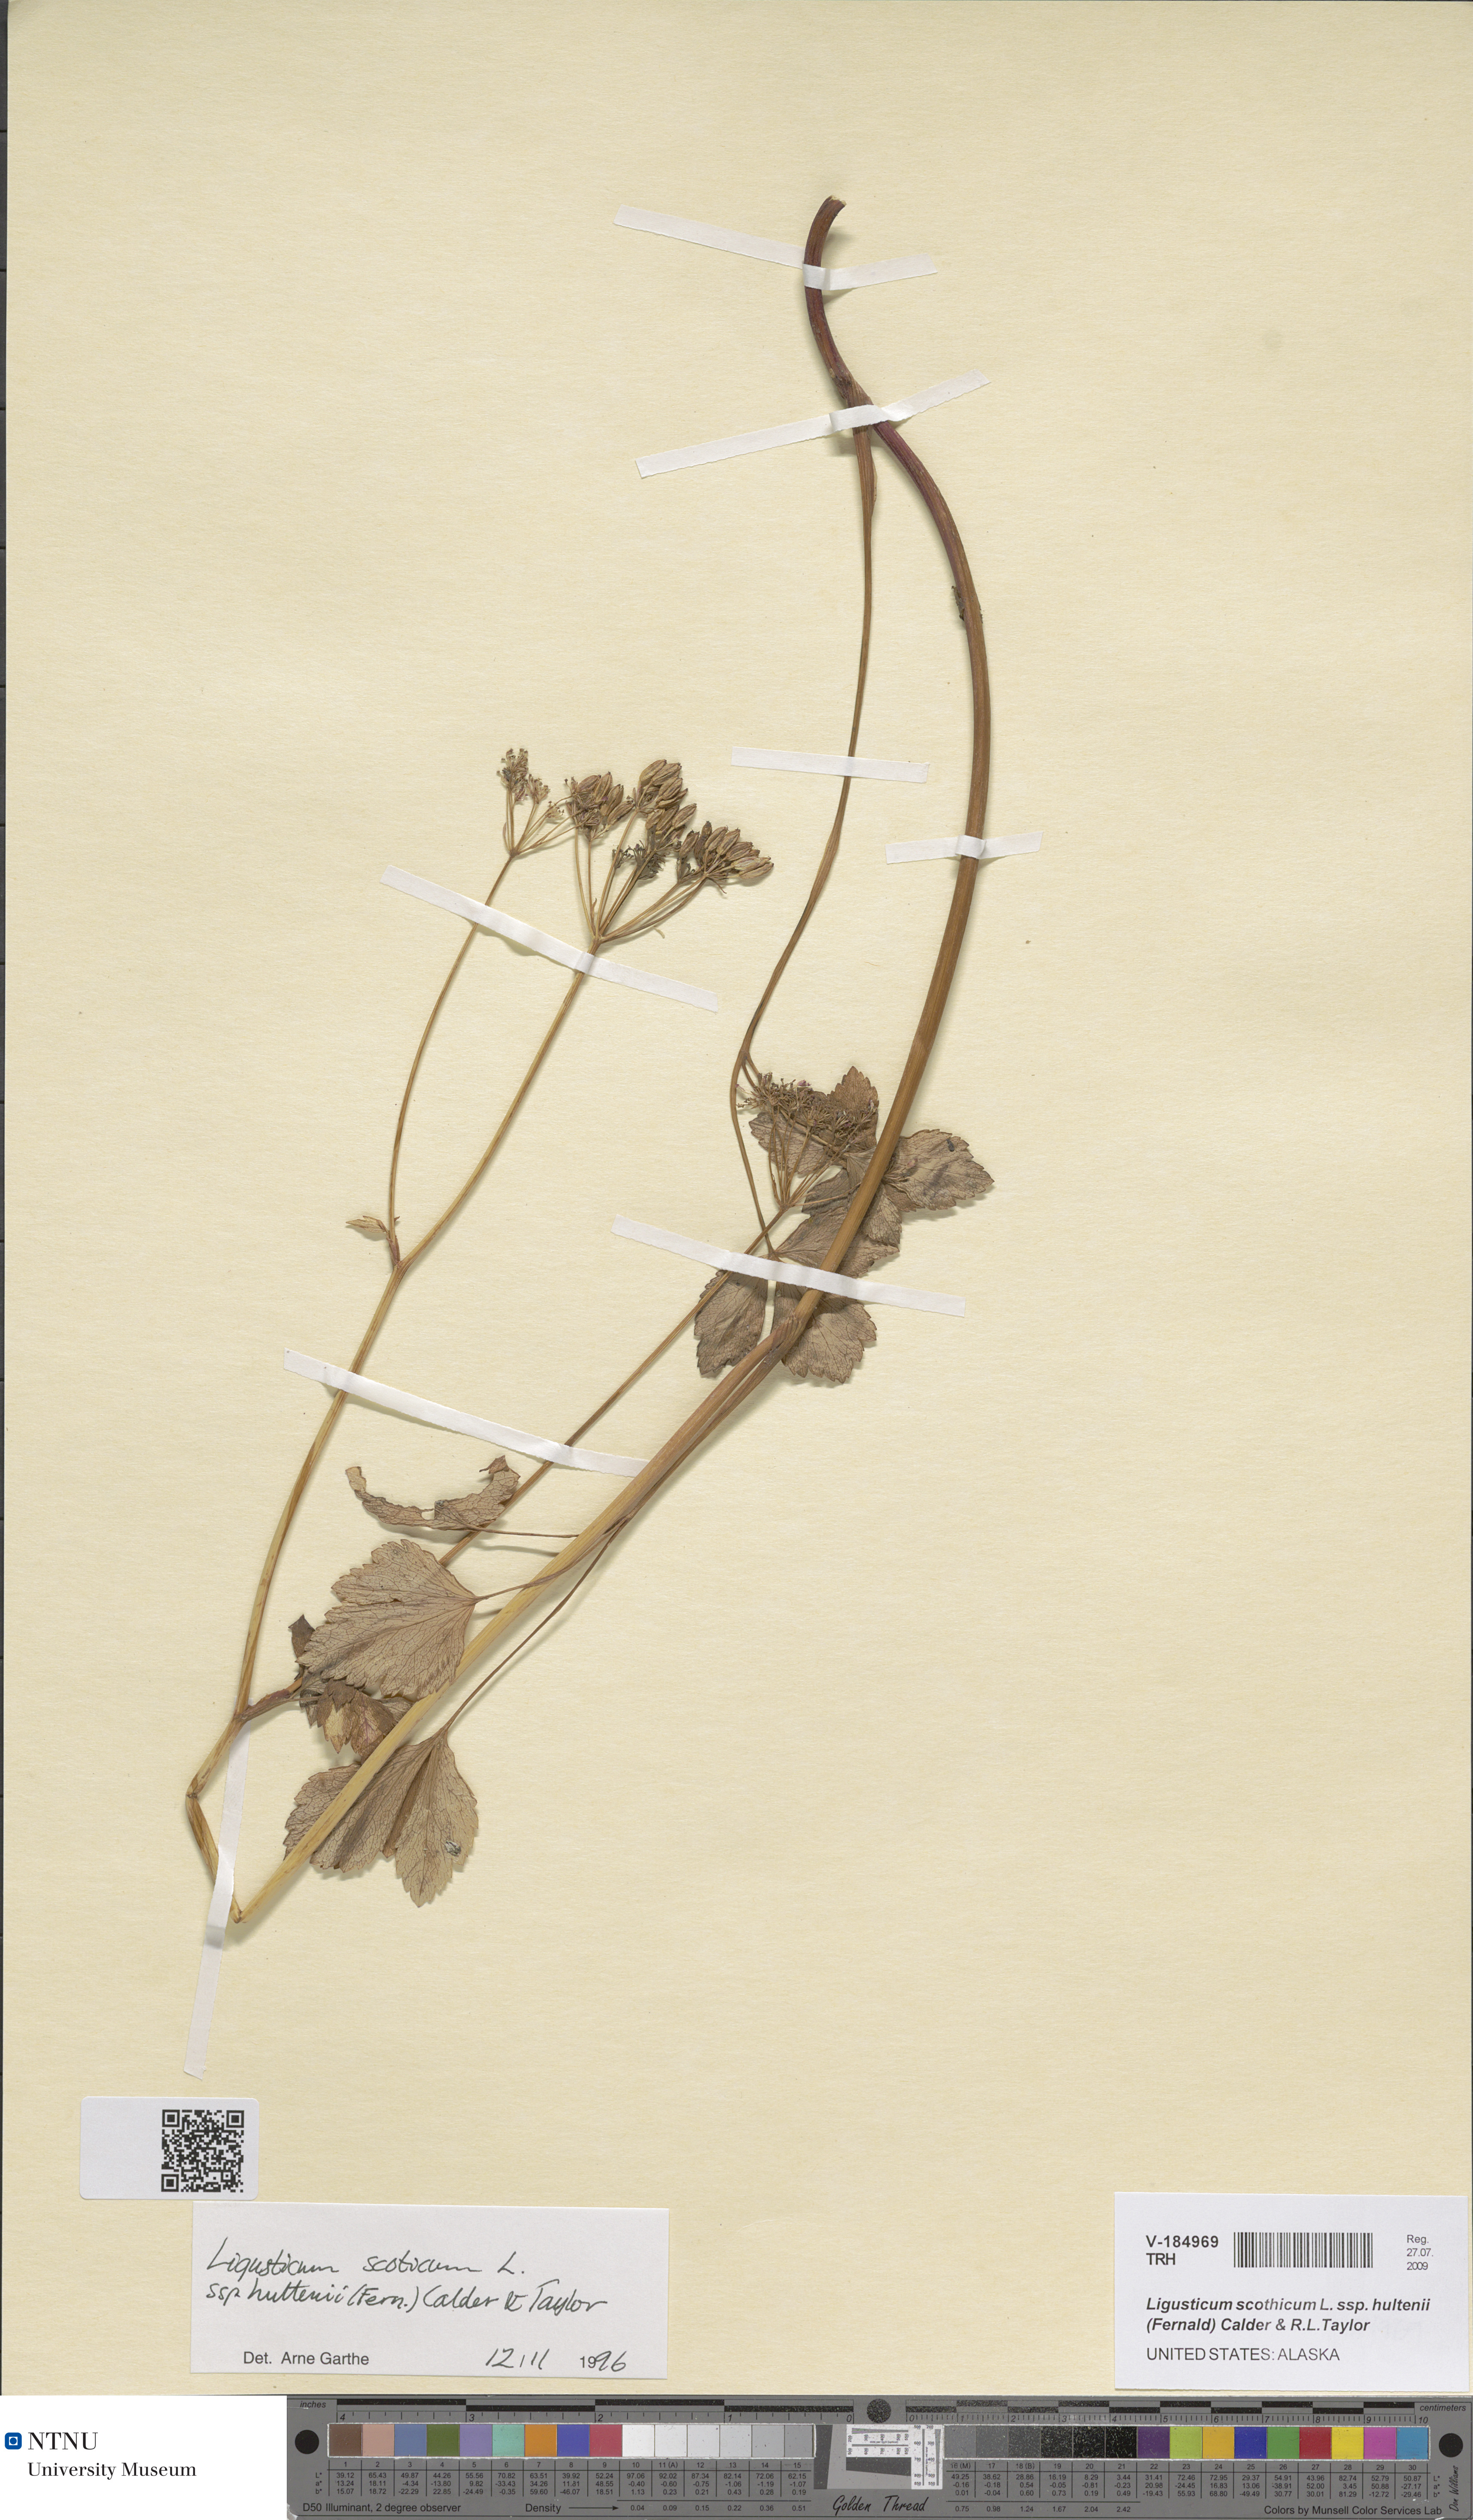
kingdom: Plantae
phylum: Tracheophyta
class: Magnoliopsida
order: Apiales
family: Apiaceae
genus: Ligusticum
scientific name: Ligusticum scothicum
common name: Beach lovage
